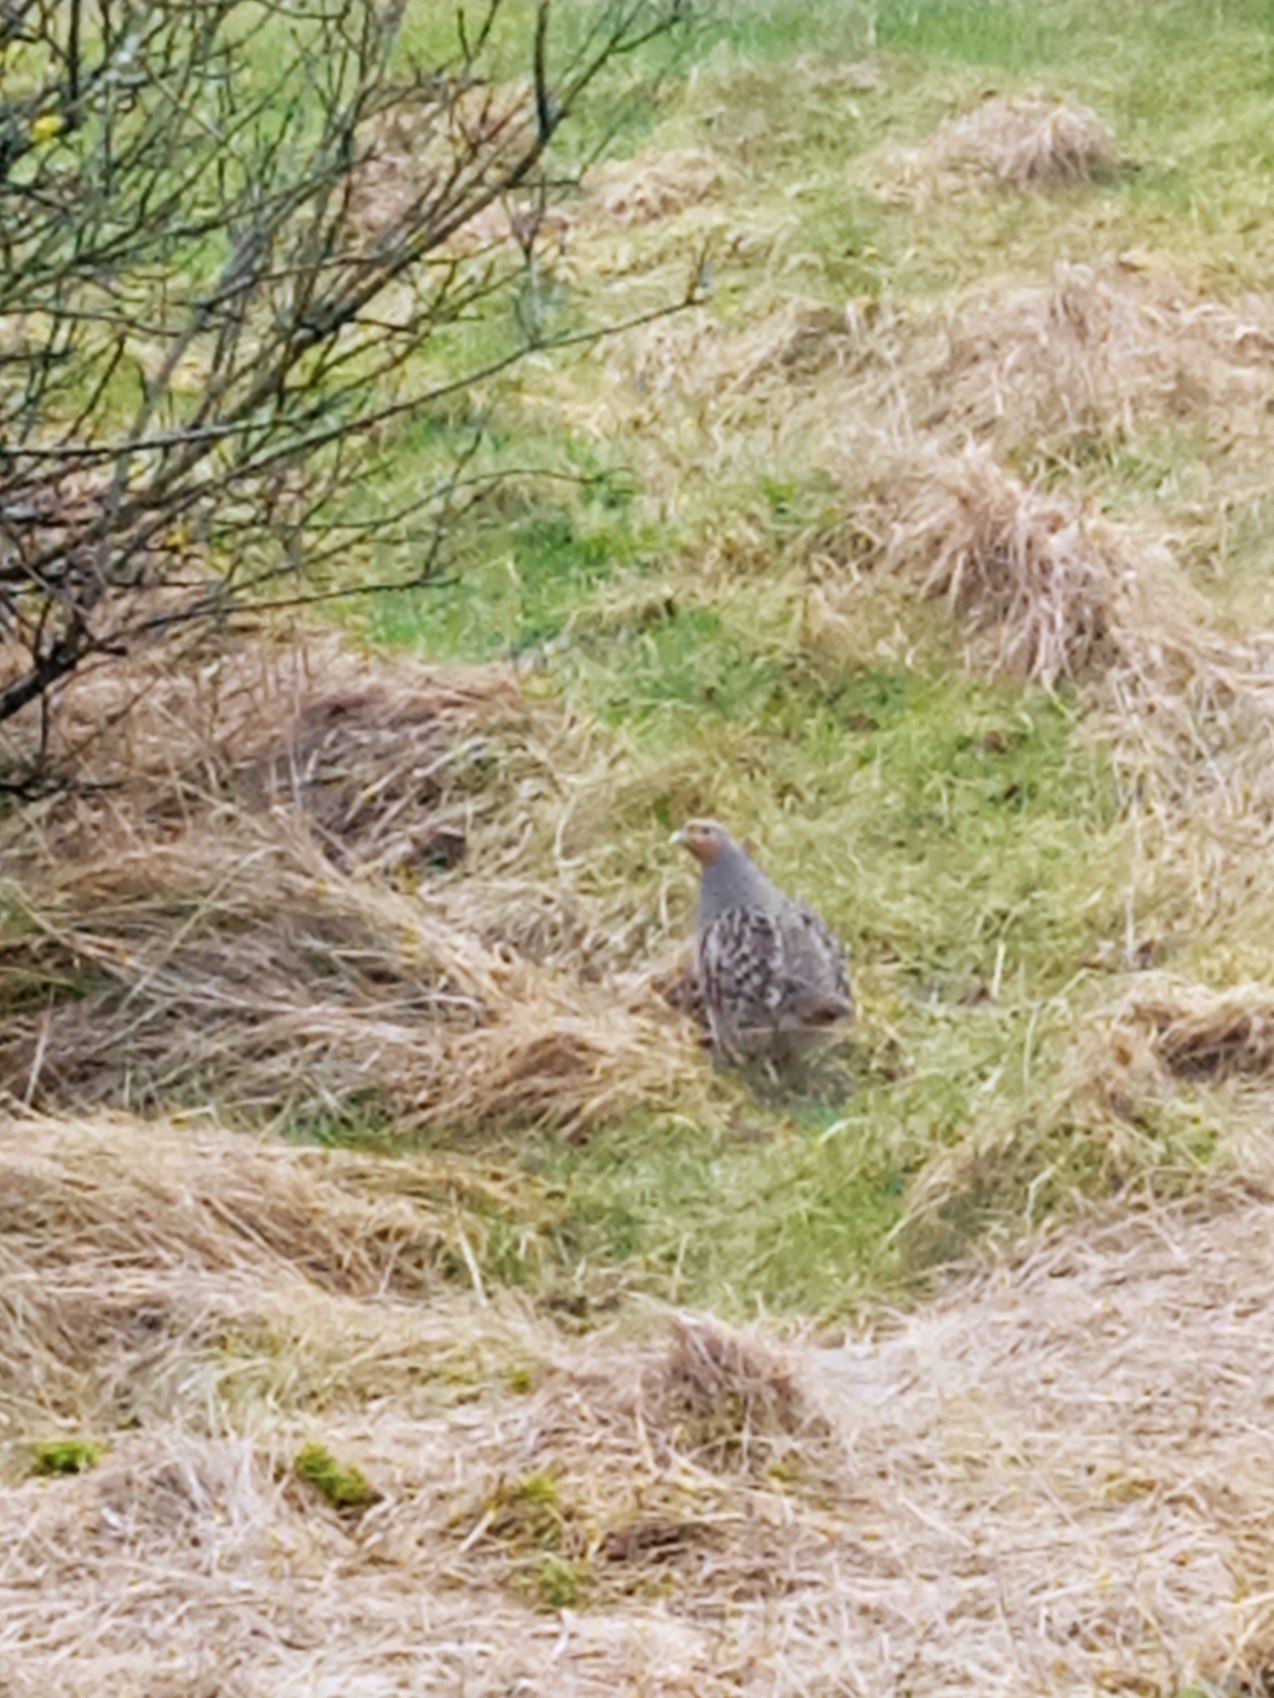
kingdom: Animalia
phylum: Chordata
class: Aves
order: Galliformes
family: Phasianidae
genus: Perdix
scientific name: Perdix perdix
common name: Agerhøne
